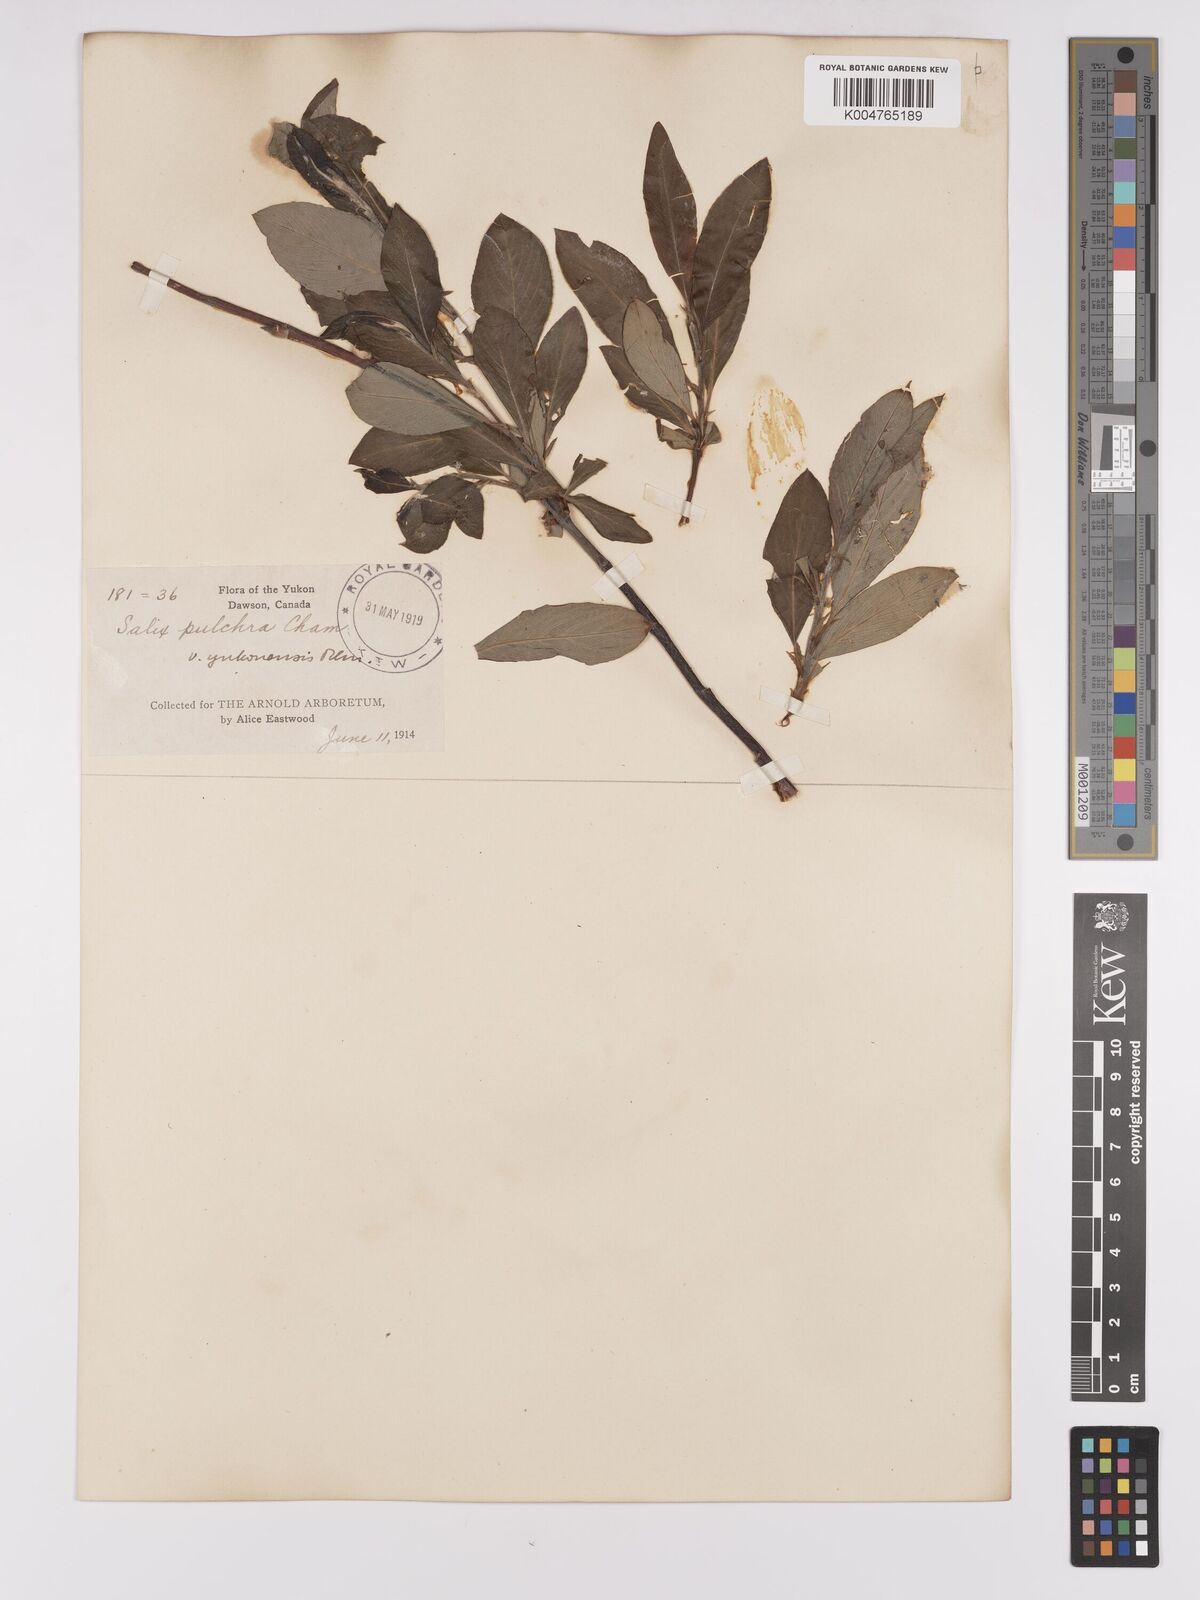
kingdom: Plantae
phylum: Tracheophyta
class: Magnoliopsida
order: Malpighiales
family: Salicaceae
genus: Salix
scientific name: Salix pulchra
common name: Diamond-leaved willow
